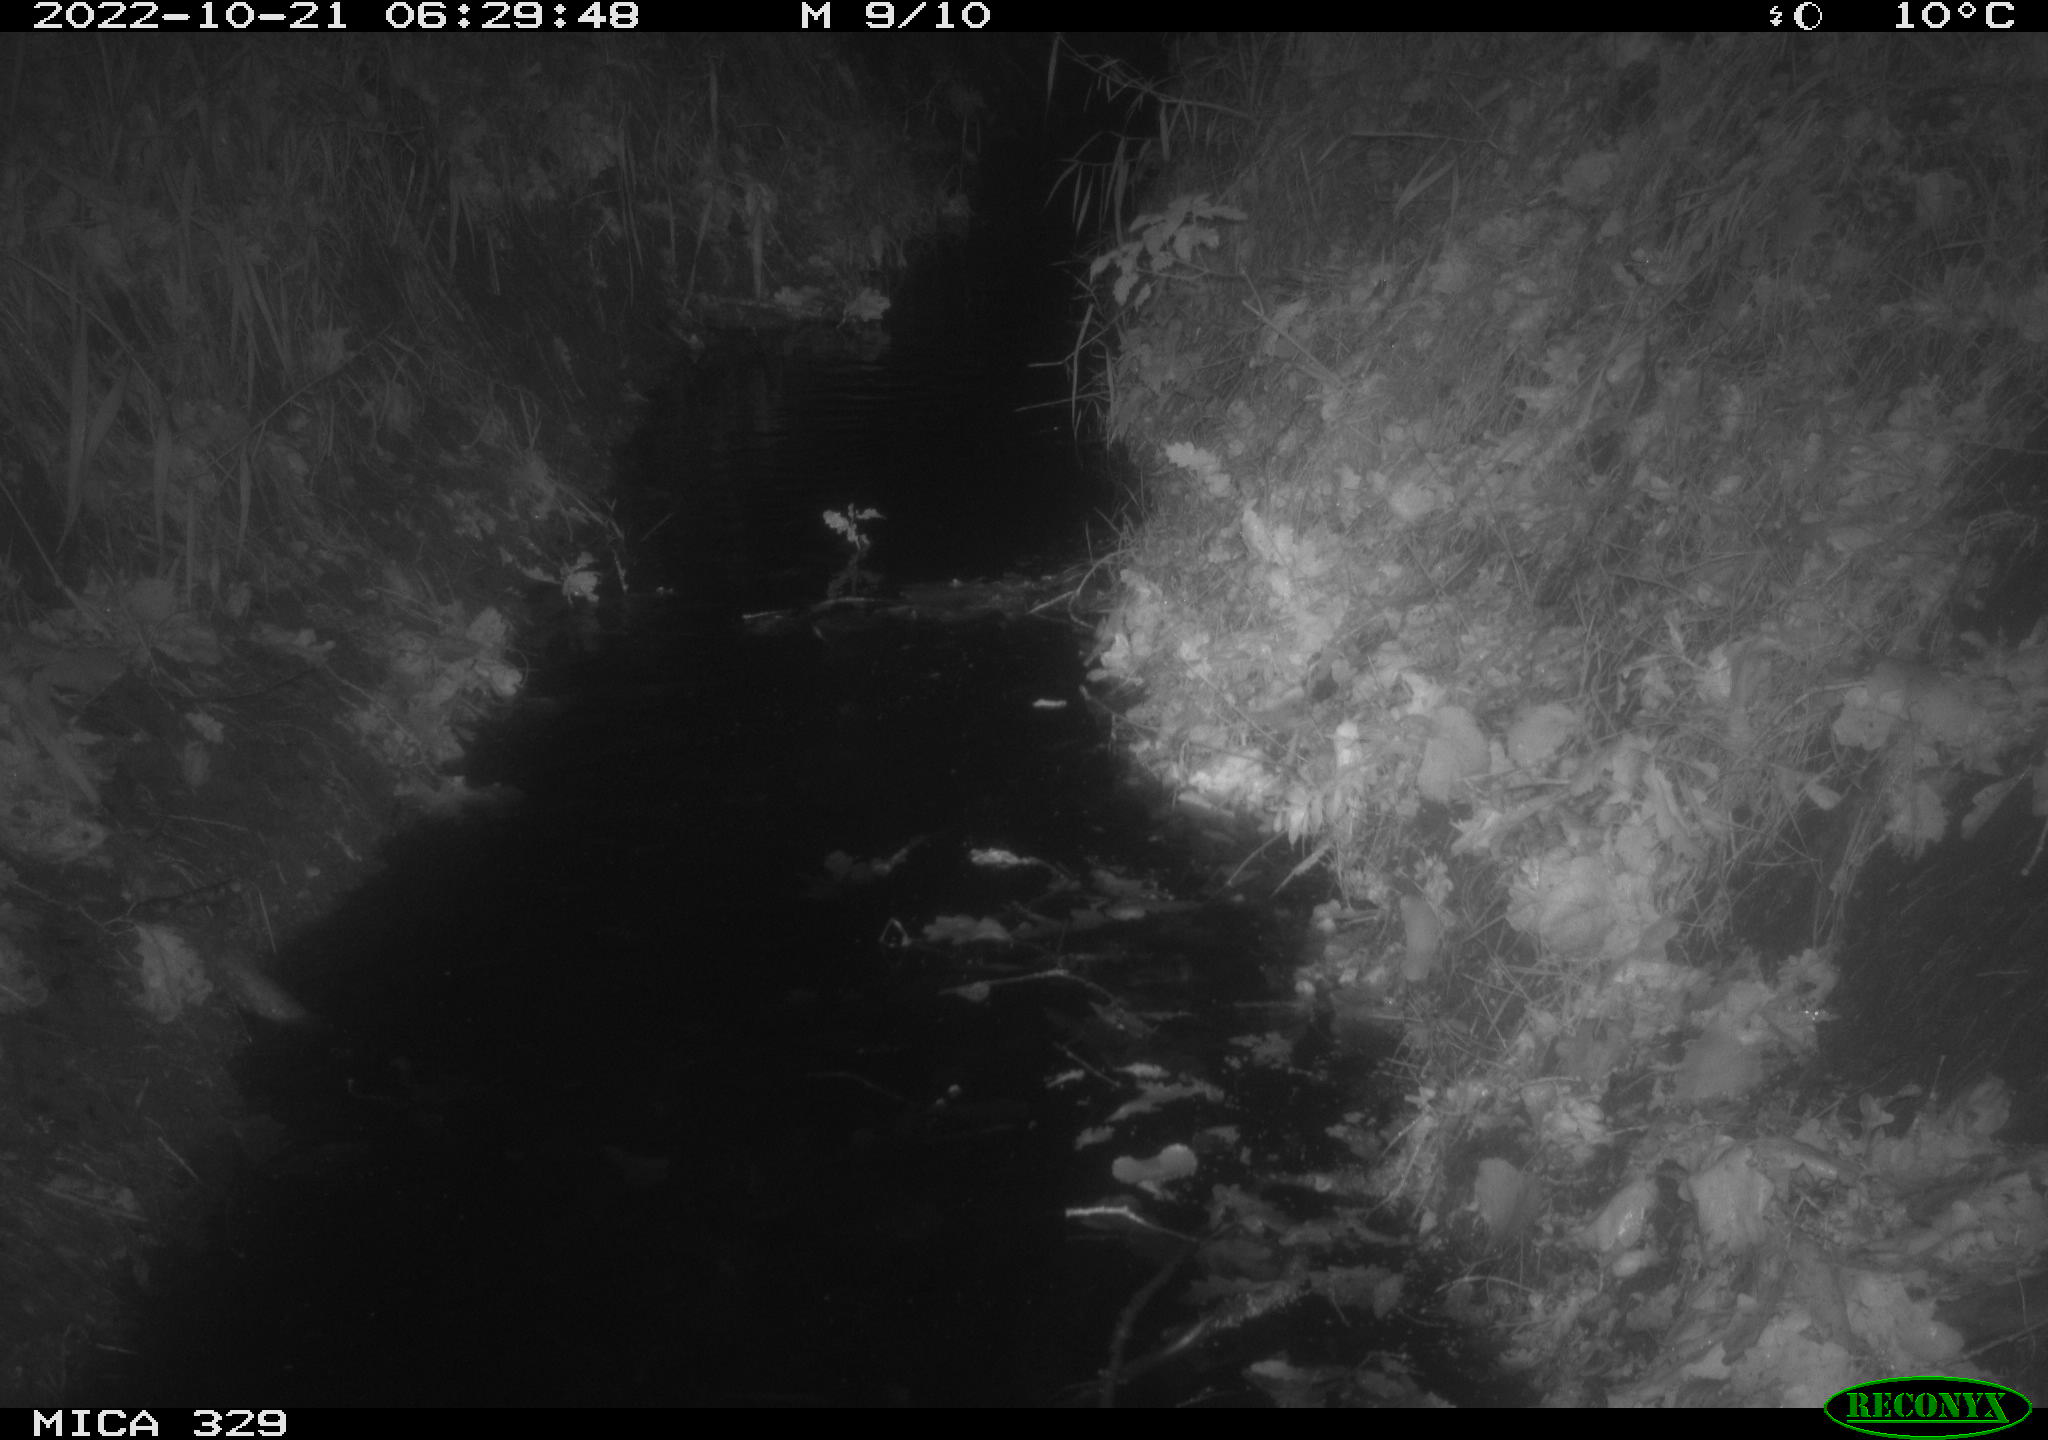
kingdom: Animalia
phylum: Chordata
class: Mammalia
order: Rodentia
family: Cricetidae
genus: Ondatra
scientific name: Ondatra zibethicus
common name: Muskrat
